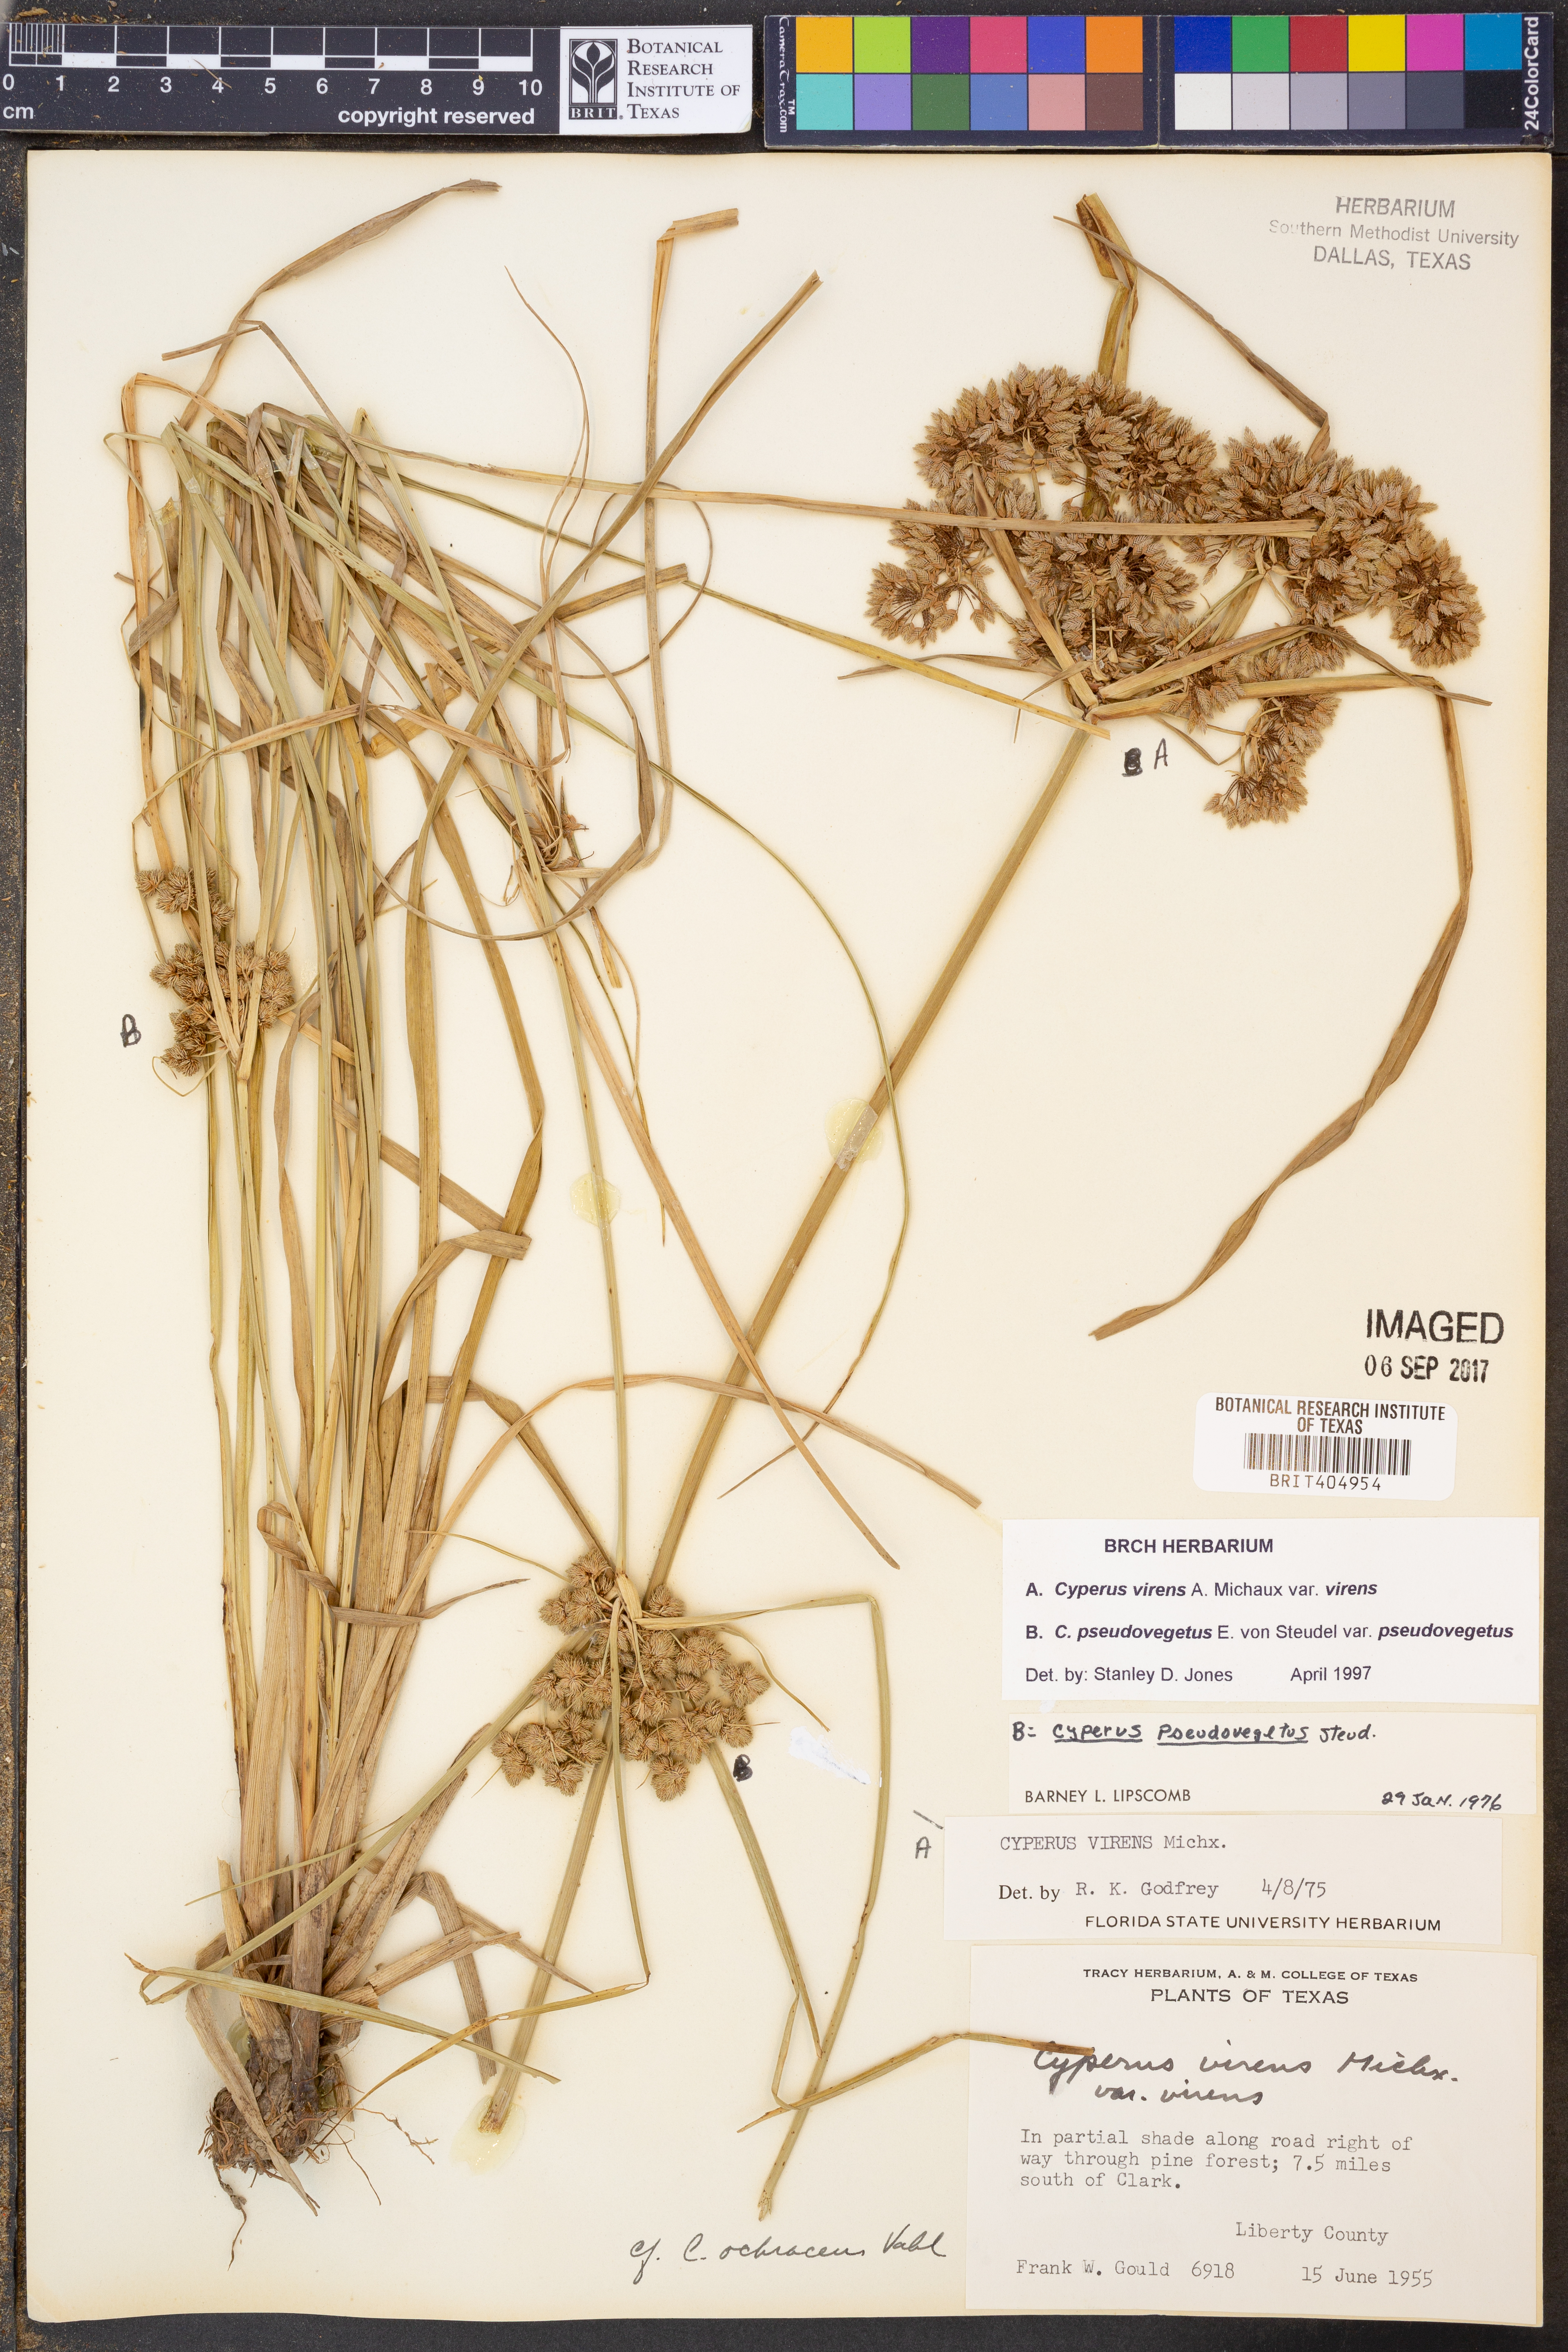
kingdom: Plantae
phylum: Tracheophyta
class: Liliopsida
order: Poales
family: Cyperaceae
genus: Cyperus
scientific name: Cyperus virens
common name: Green flatsedge
